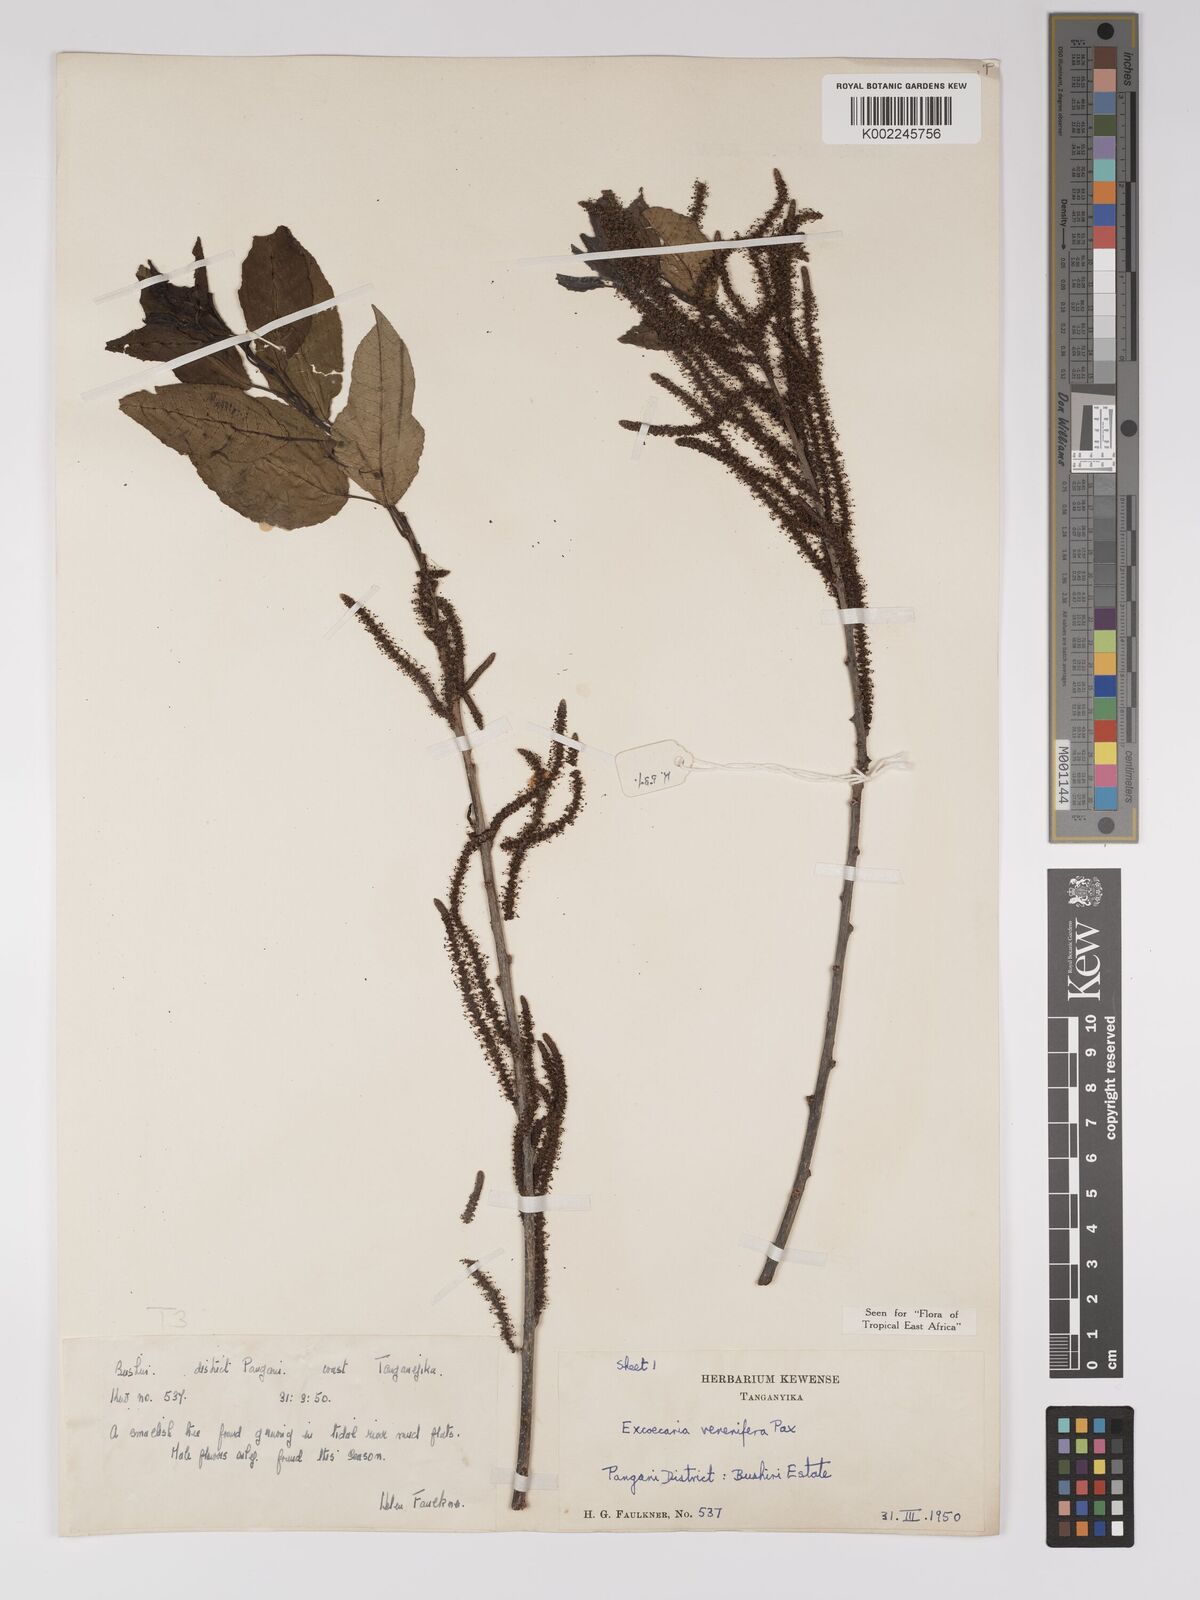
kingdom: Plantae
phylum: Tracheophyta
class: Magnoliopsida
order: Malpighiales
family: Euphorbiaceae
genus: Spirostachys
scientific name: Spirostachys venenifera
